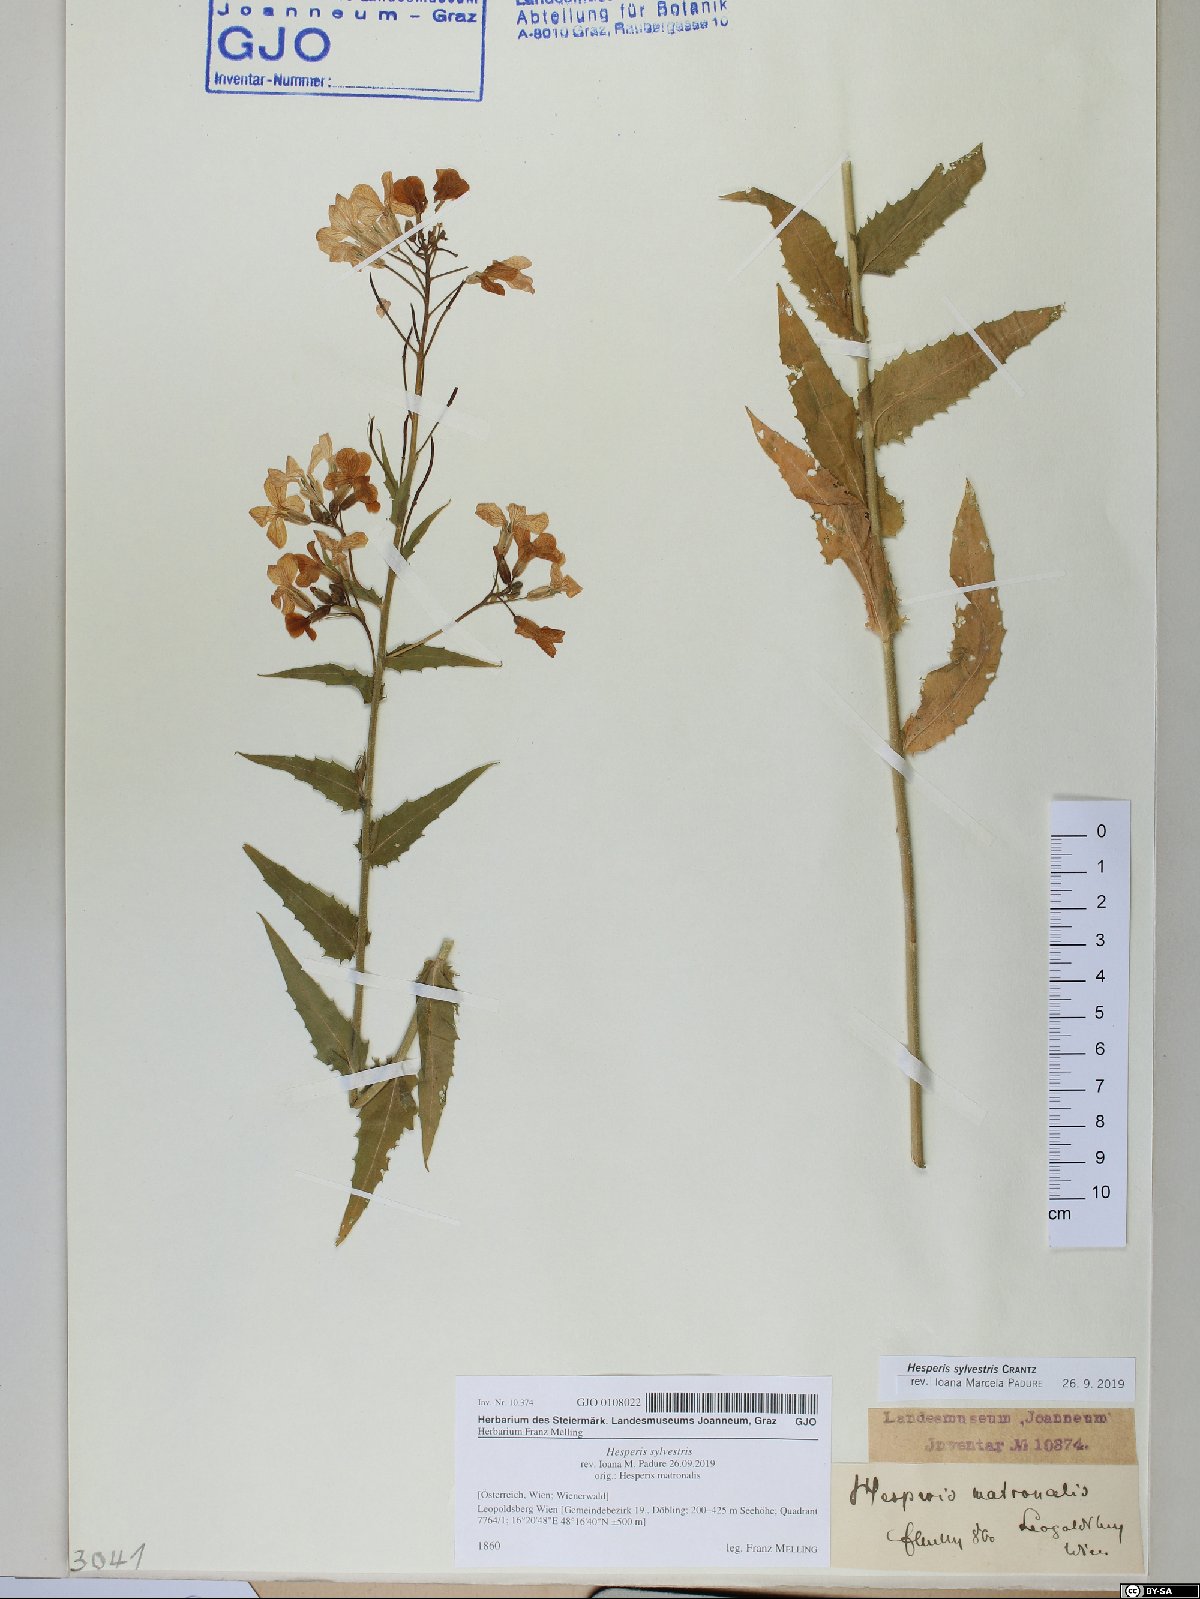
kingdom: Plantae
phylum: Tracheophyta
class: Magnoliopsida
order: Brassicales
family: Brassicaceae
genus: Hesperis
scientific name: Hesperis sylvestris
